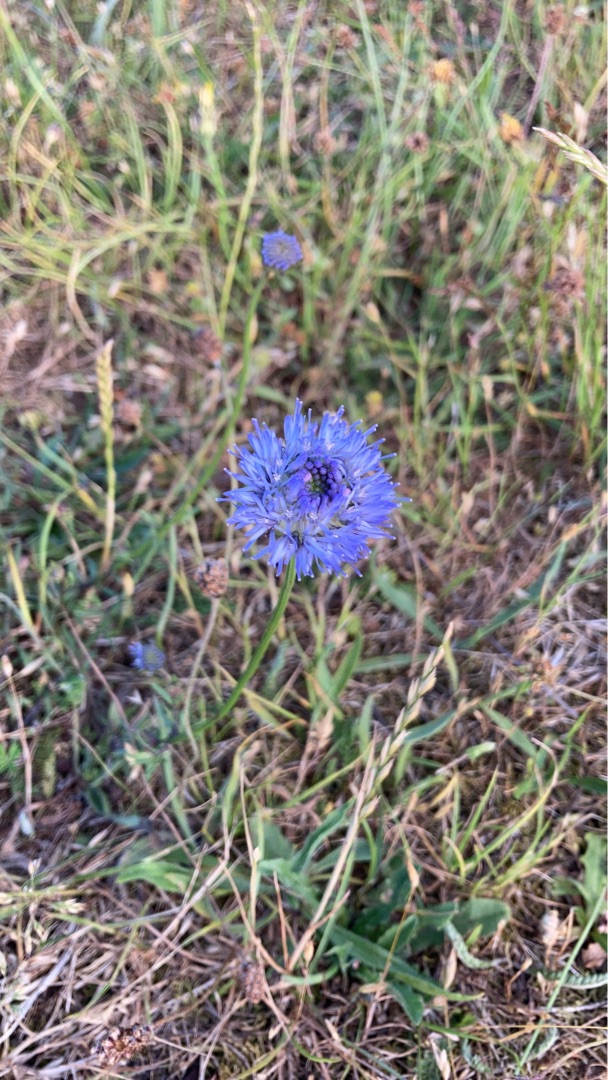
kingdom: Plantae
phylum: Tracheophyta
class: Magnoliopsida
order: Asterales
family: Campanulaceae
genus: Jasione
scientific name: Jasione montana
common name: Blåmunke
